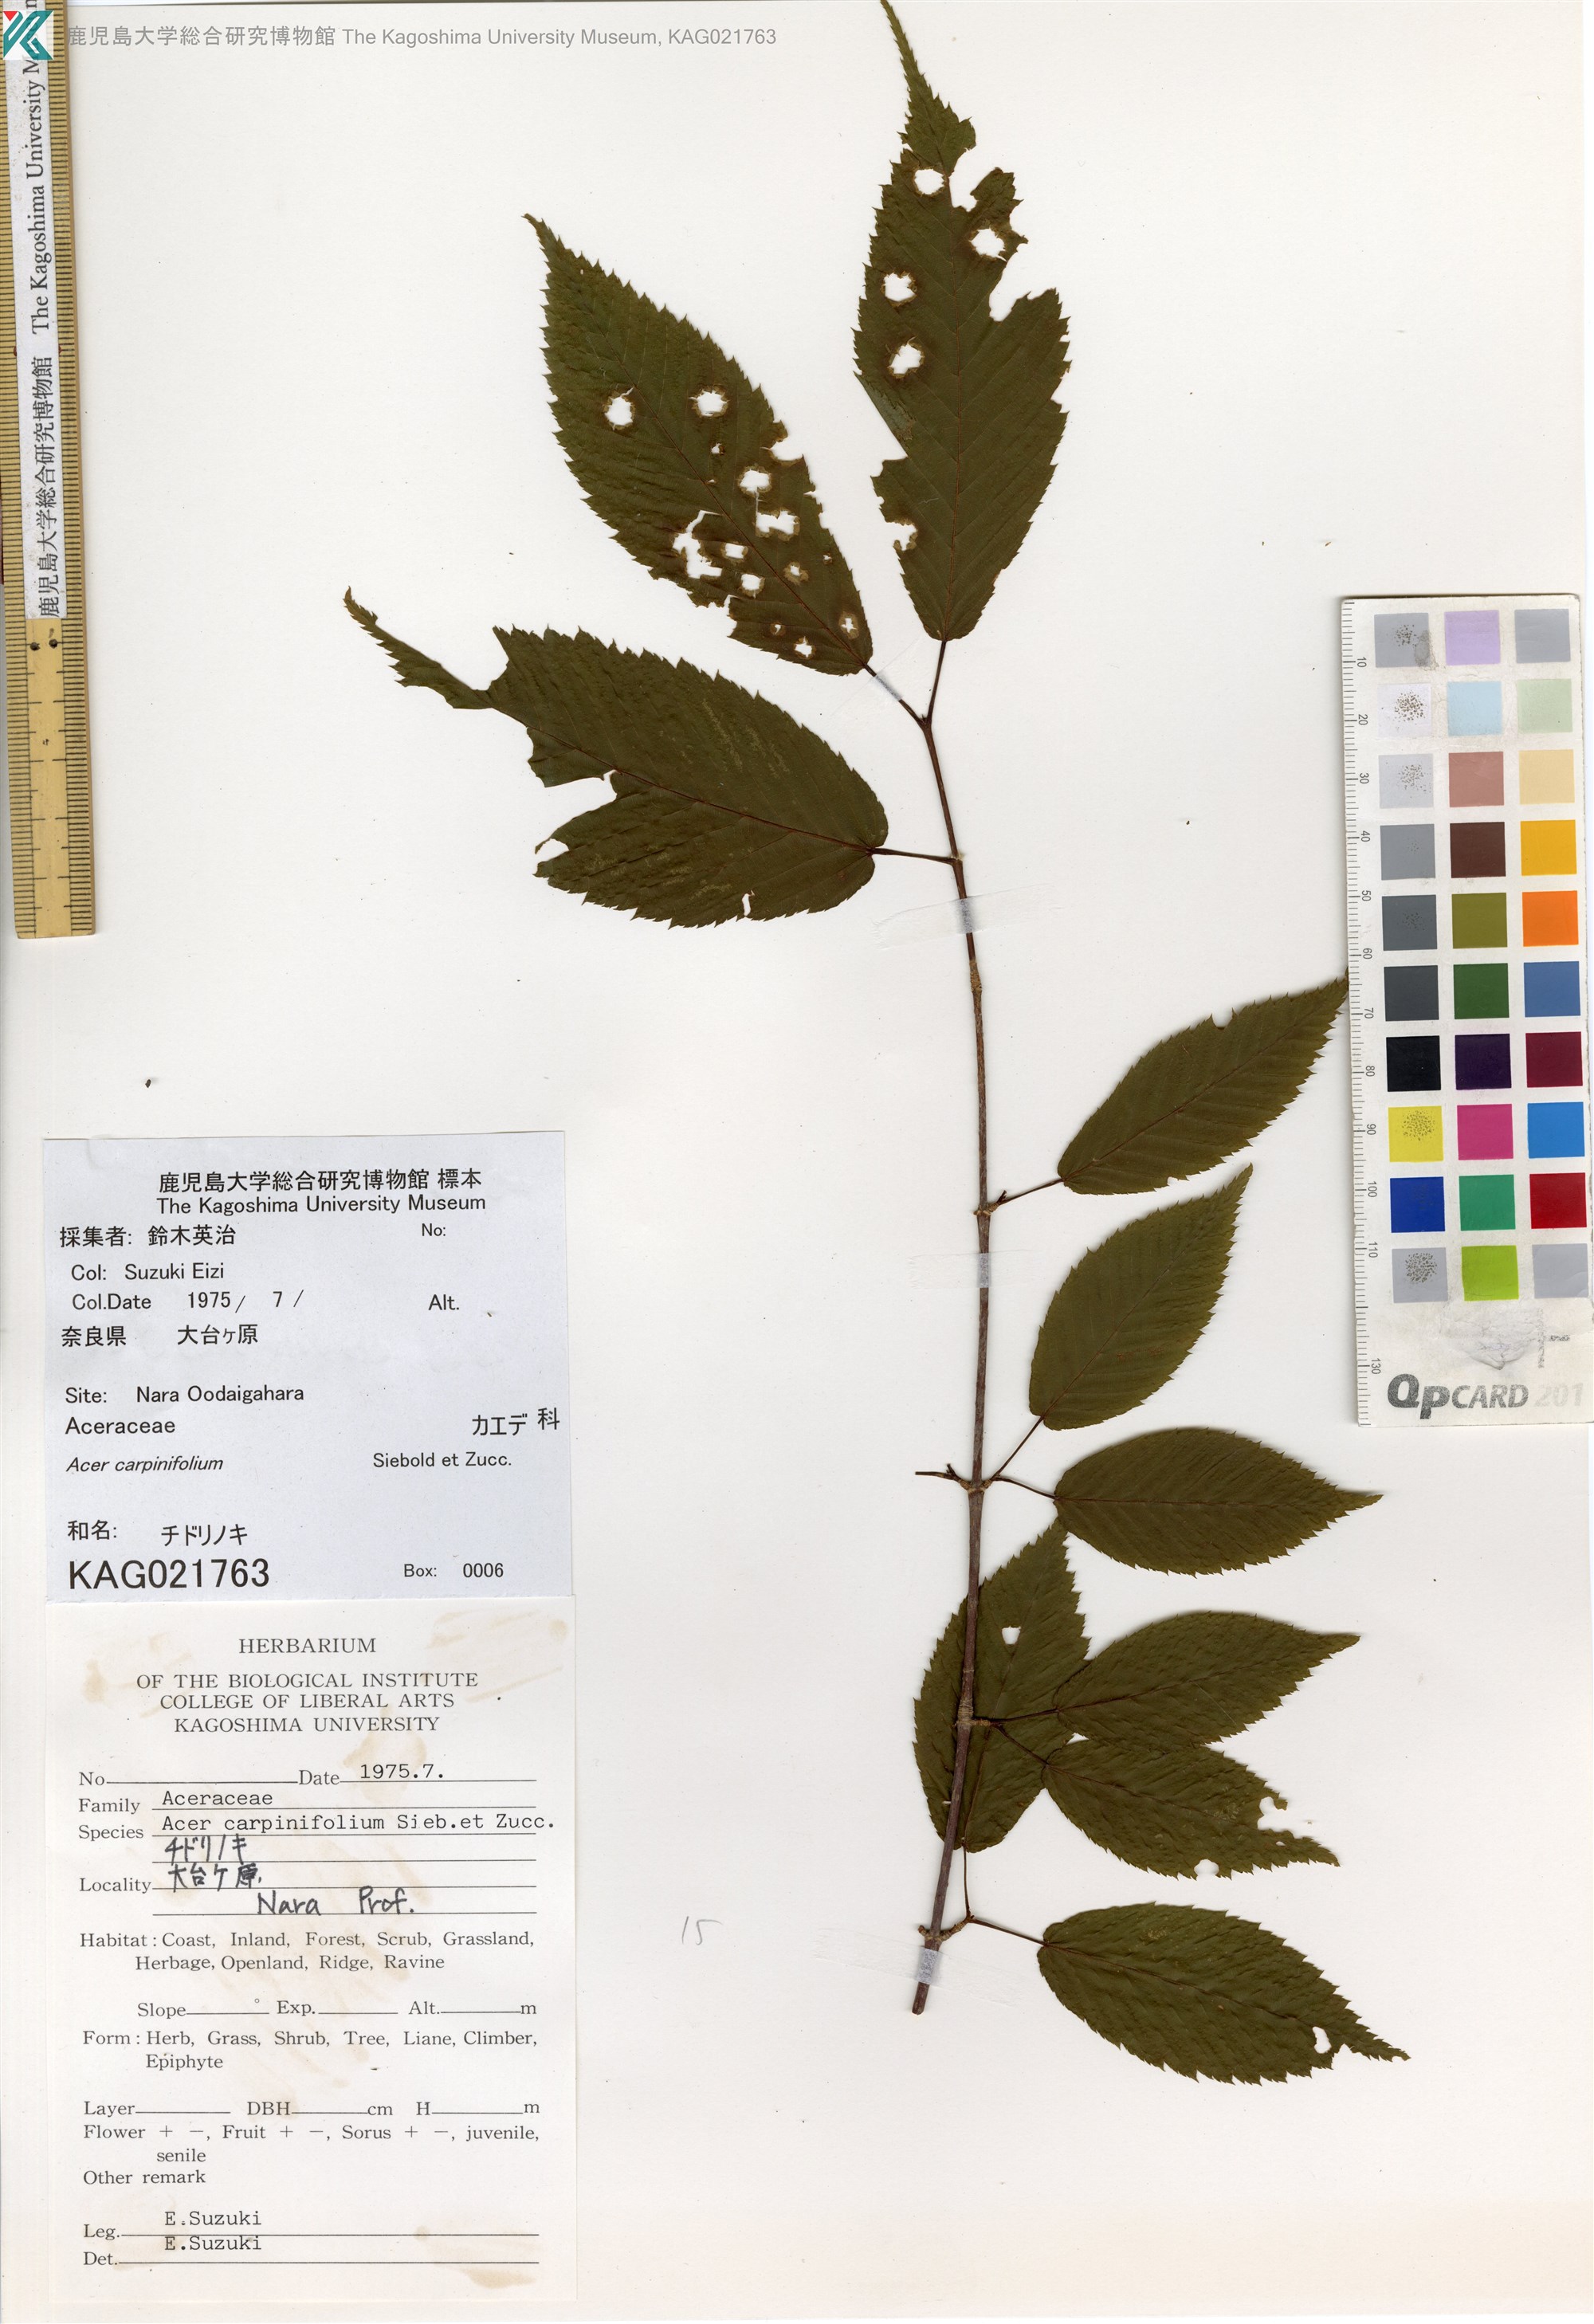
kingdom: Plantae
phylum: Tracheophyta
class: Magnoliopsida
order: Sapindales
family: Sapindaceae
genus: Acer
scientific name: Acer carpinifolium
